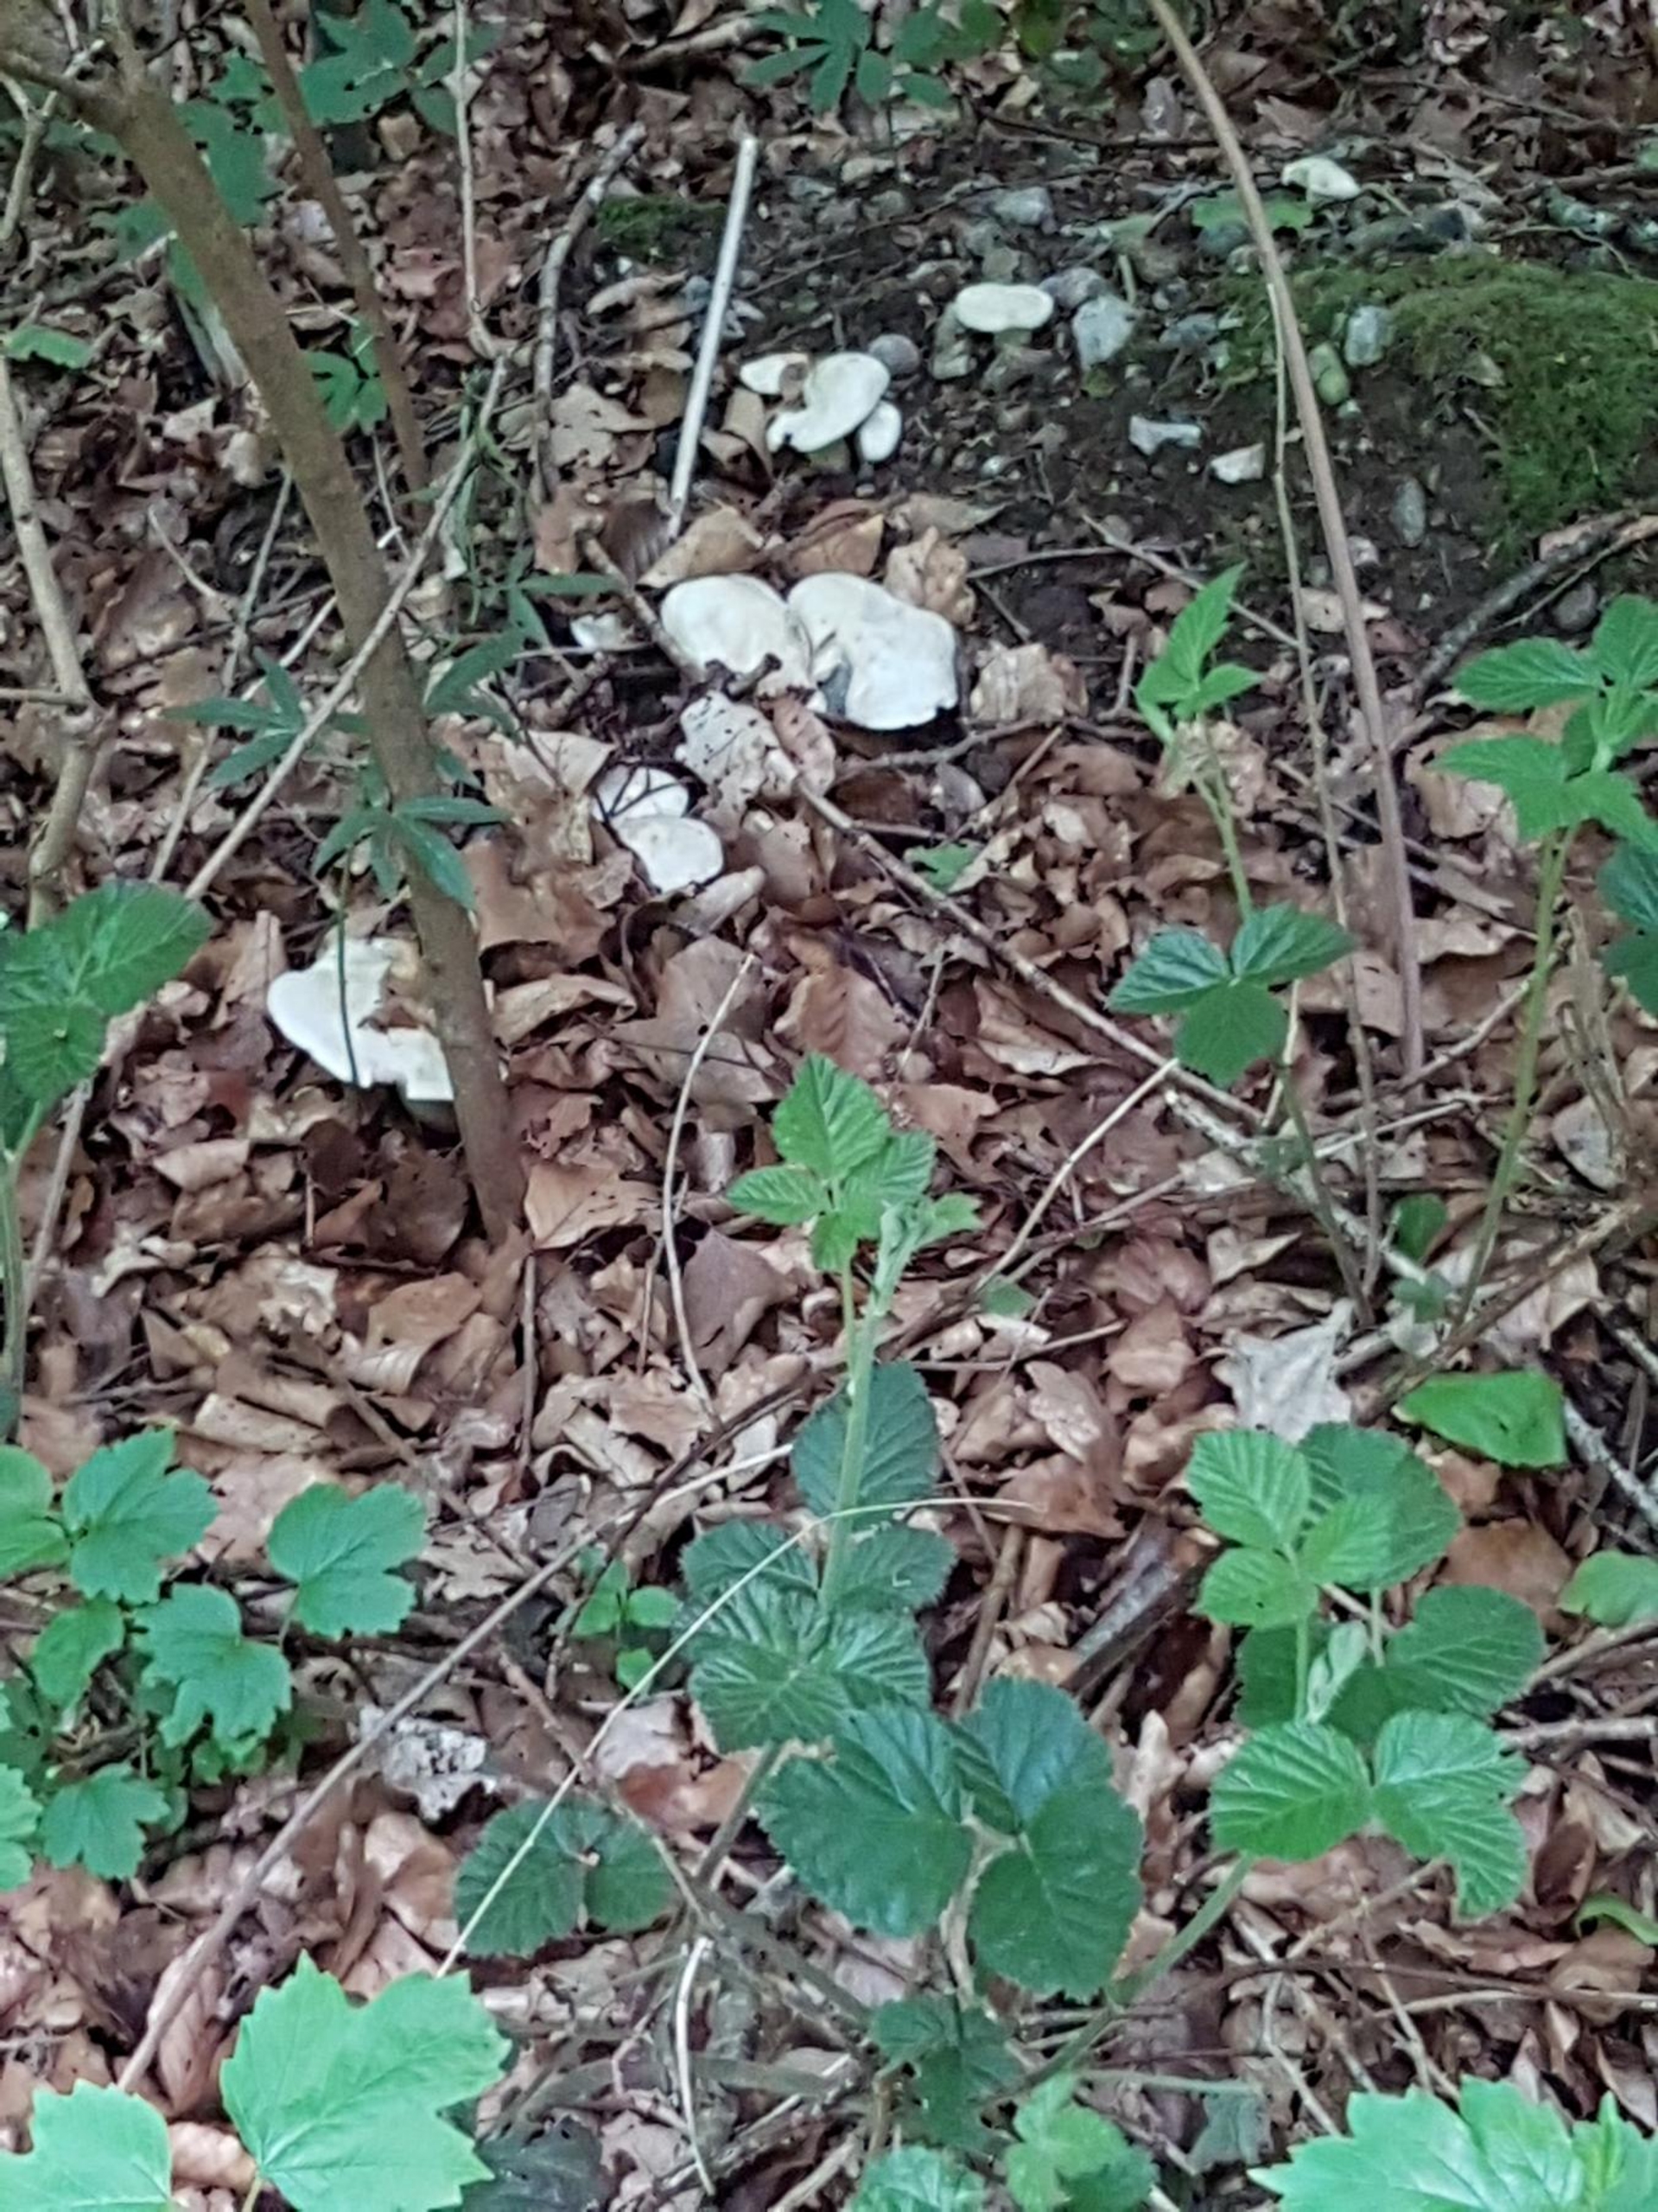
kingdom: Fungi
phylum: Basidiomycota
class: Agaricomycetes
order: Agaricales
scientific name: Agaricales
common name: Champignonordenen
